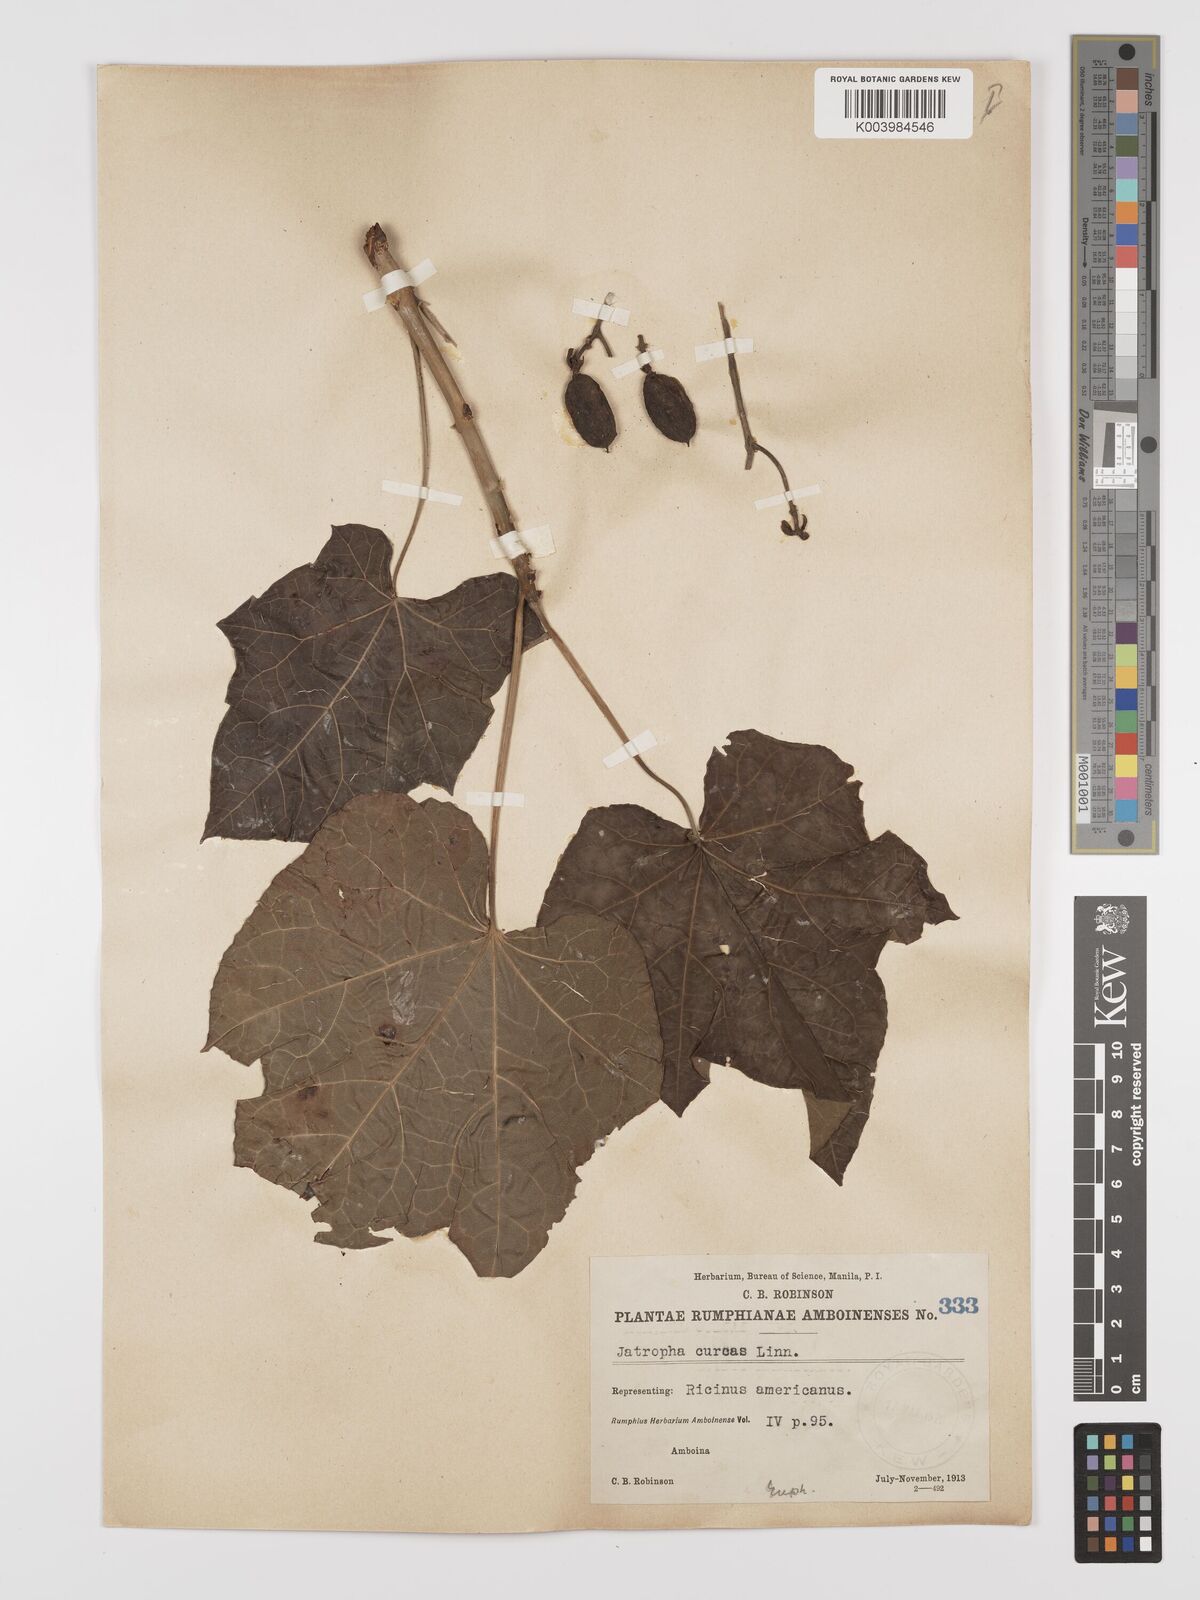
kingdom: Plantae
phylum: Tracheophyta
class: Magnoliopsida
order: Malpighiales
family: Euphorbiaceae
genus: Jatropha
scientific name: Jatropha curcas
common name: Barbados nut
